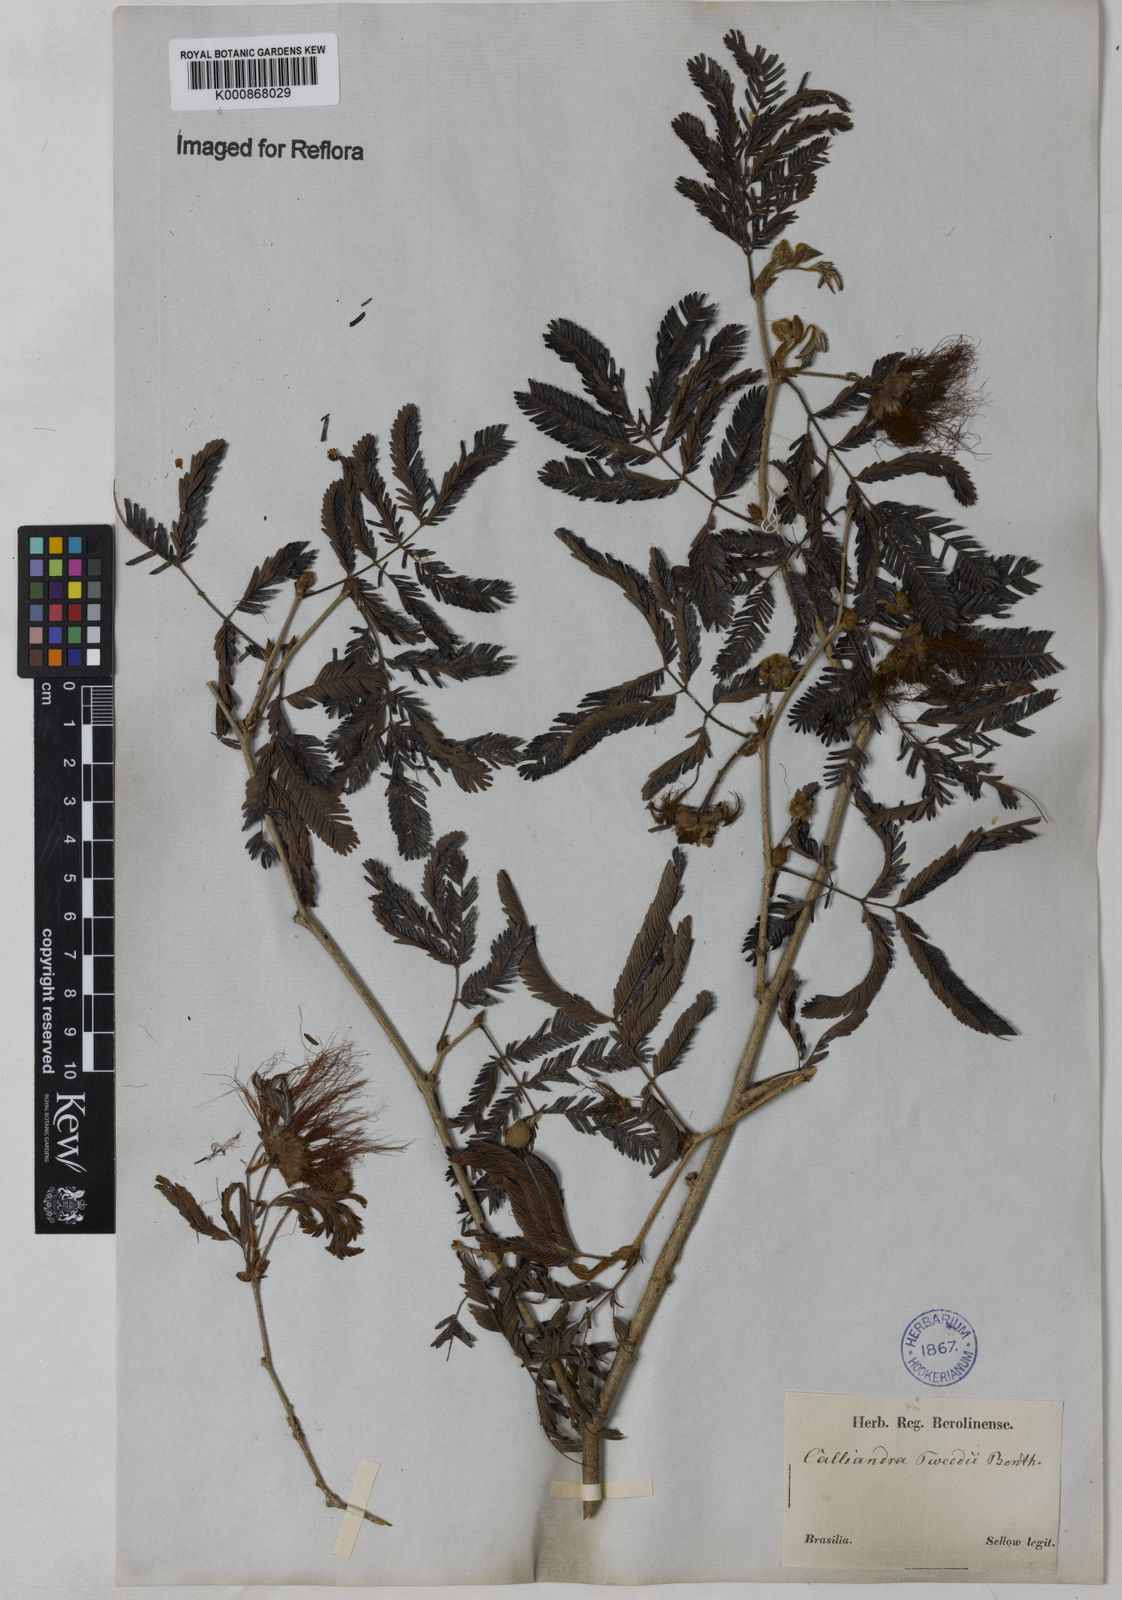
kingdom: Plantae
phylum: Tracheophyta
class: Magnoliopsida
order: Fabales
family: Fabaceae
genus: Calliandra
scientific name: Calliandra tweediei
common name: Mexican flamebush
